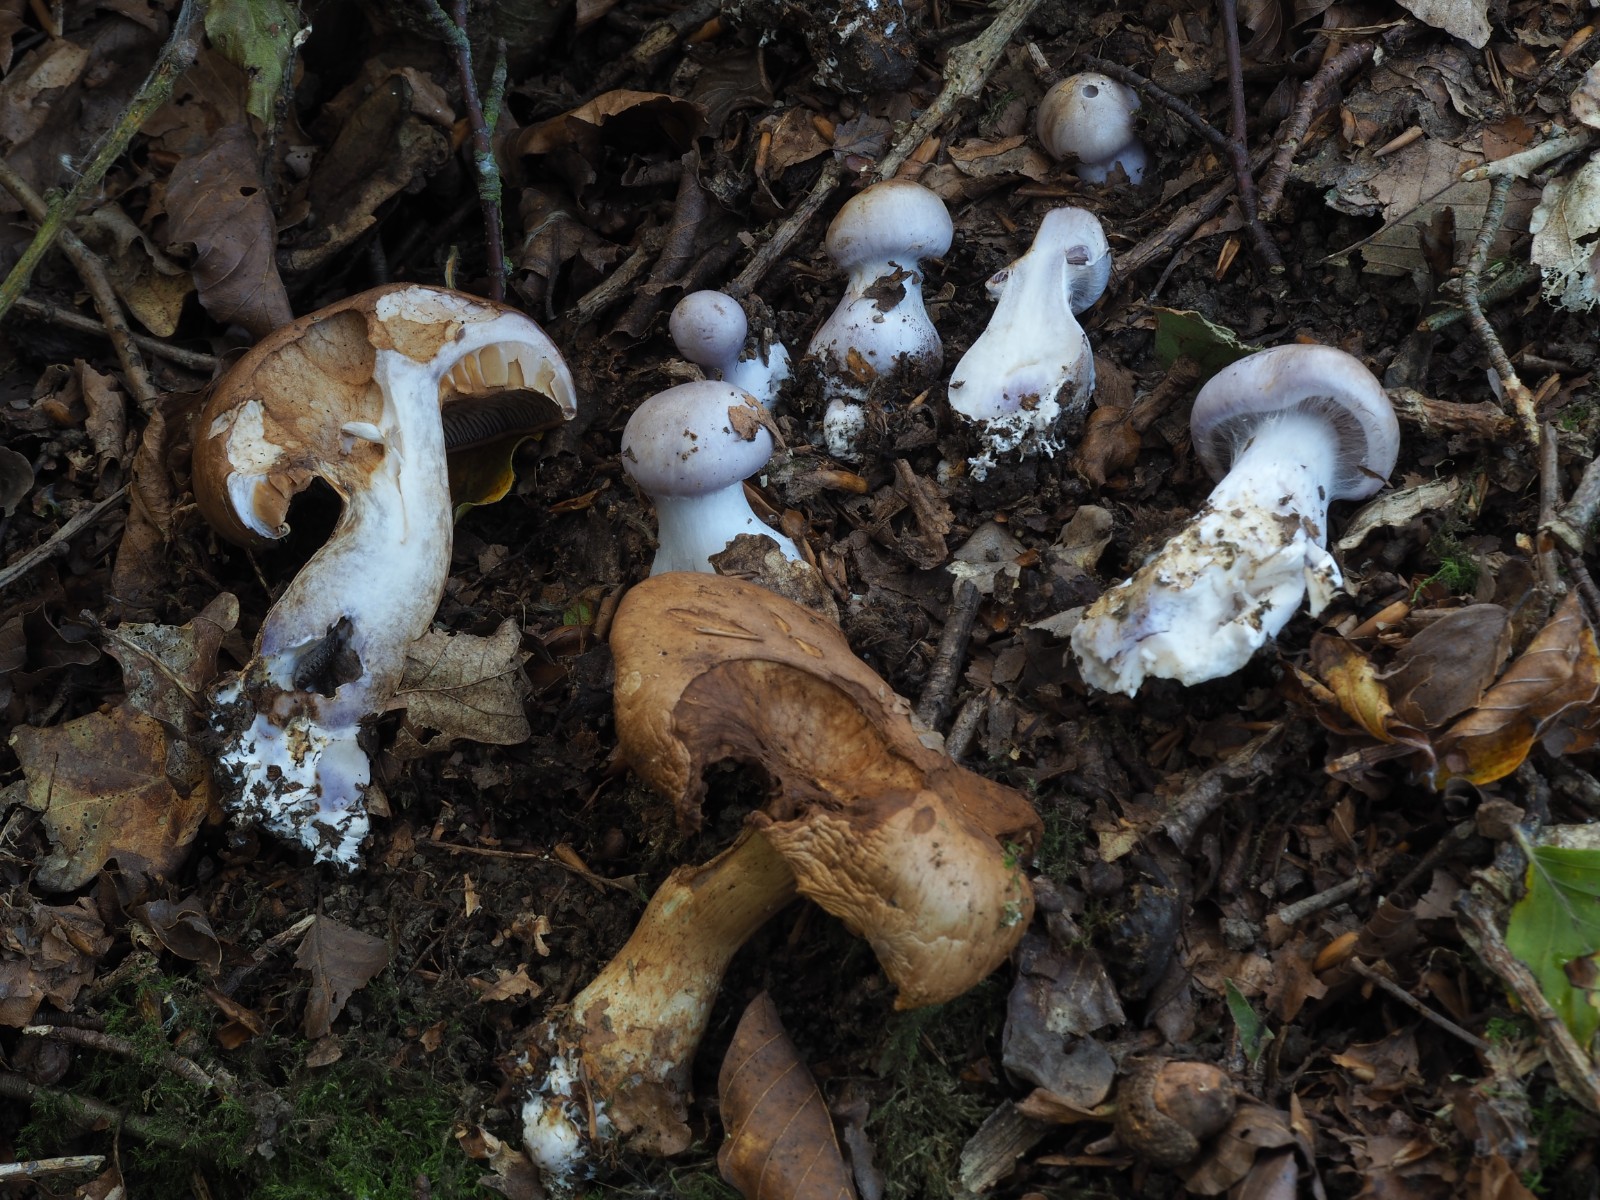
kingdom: Fungi
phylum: Basidiomycota
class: Agaricomycetes
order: Agaricales
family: Cortinariaceae
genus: Cortinarius
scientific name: Cortinarius largus
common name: violetrandet slørhat
